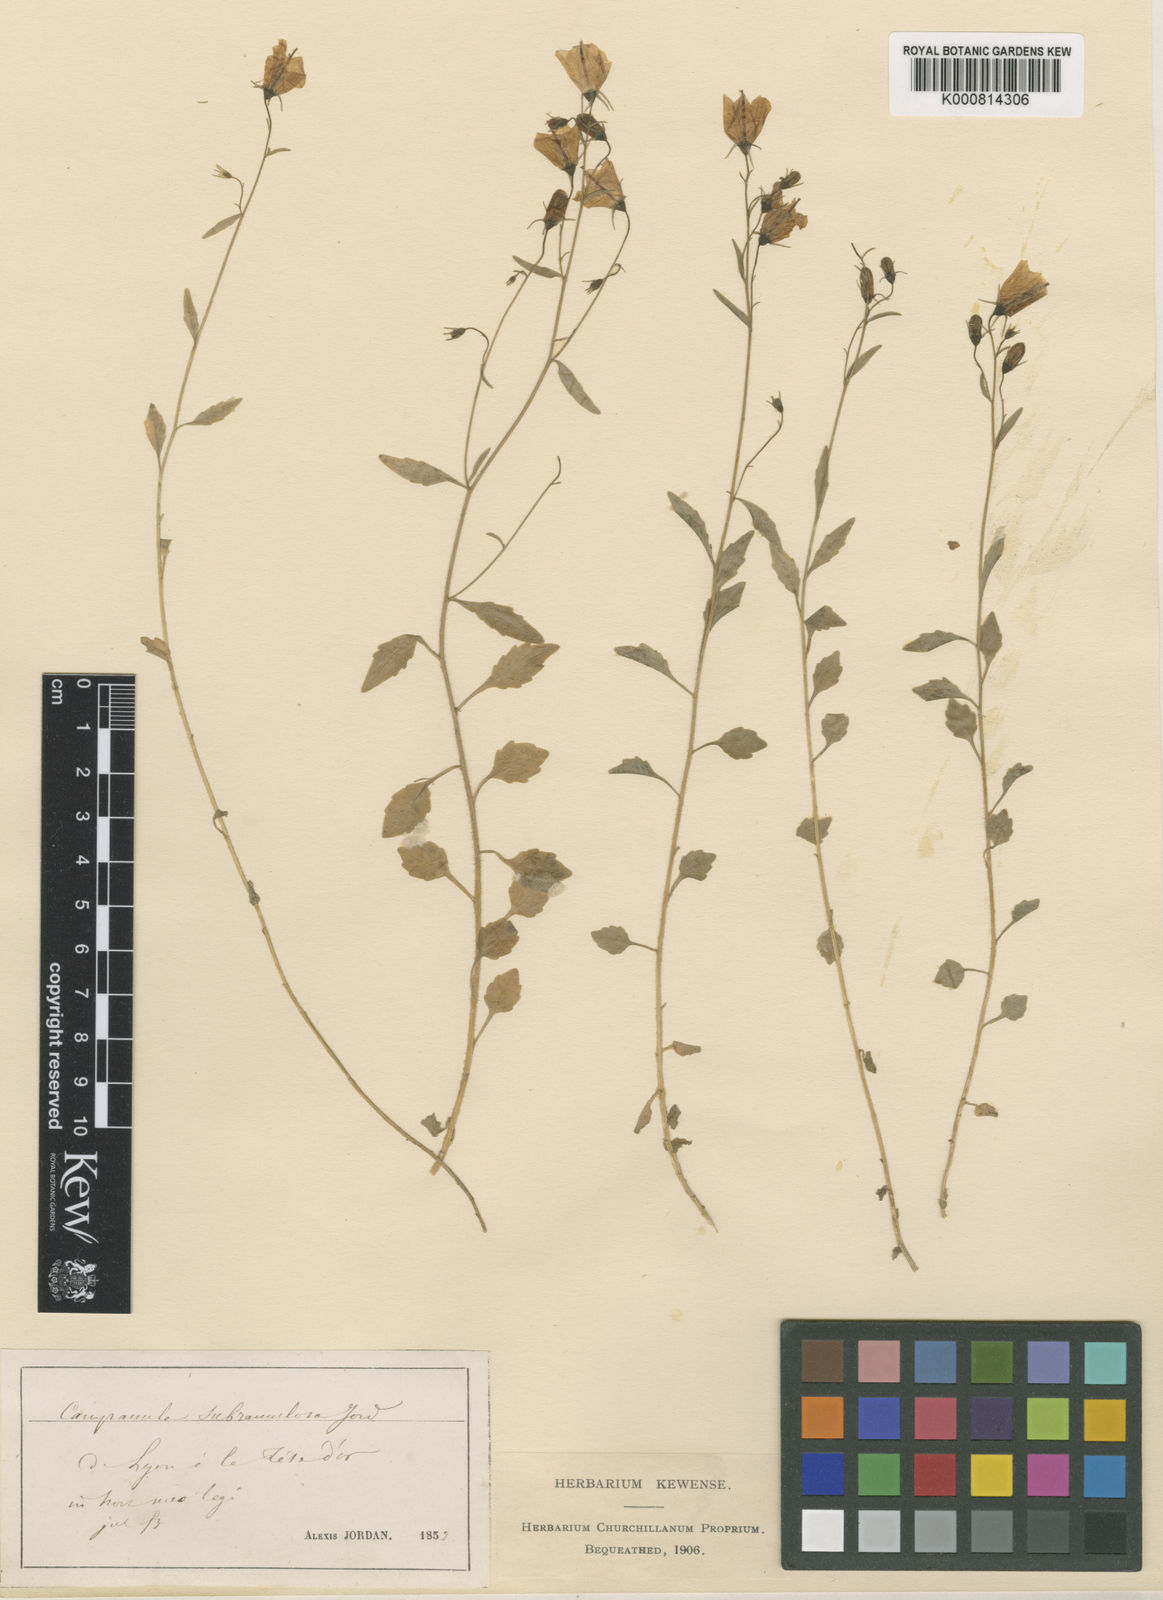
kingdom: Plantae
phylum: Tracheophyta
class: Magnoliopsida
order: Asterales
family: Campanulaceae
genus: Campanula
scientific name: Campanula cochleariifolia
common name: Fairies'-thimbles
